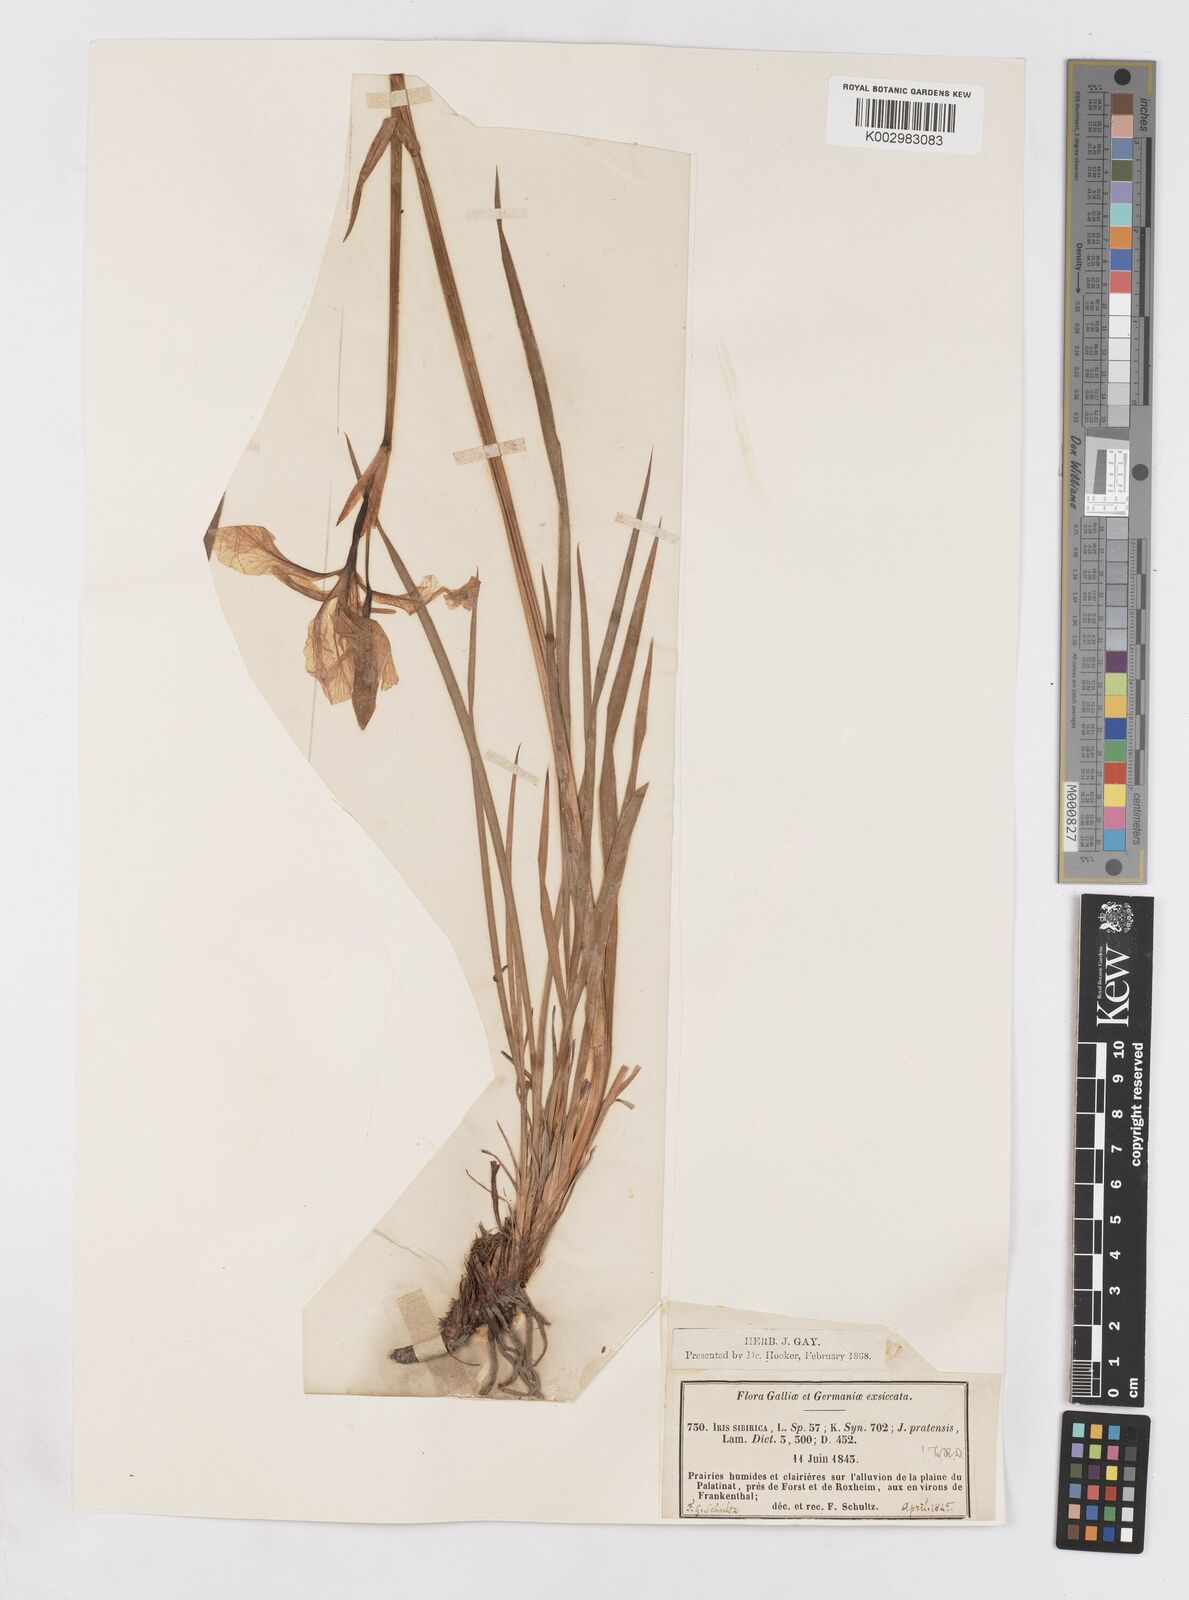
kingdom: Plantae
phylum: Tracheophyta
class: Liliopsida
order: Asparagales
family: Iridaceae
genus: Iris
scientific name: Iris sibirica
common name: Siberian iris
